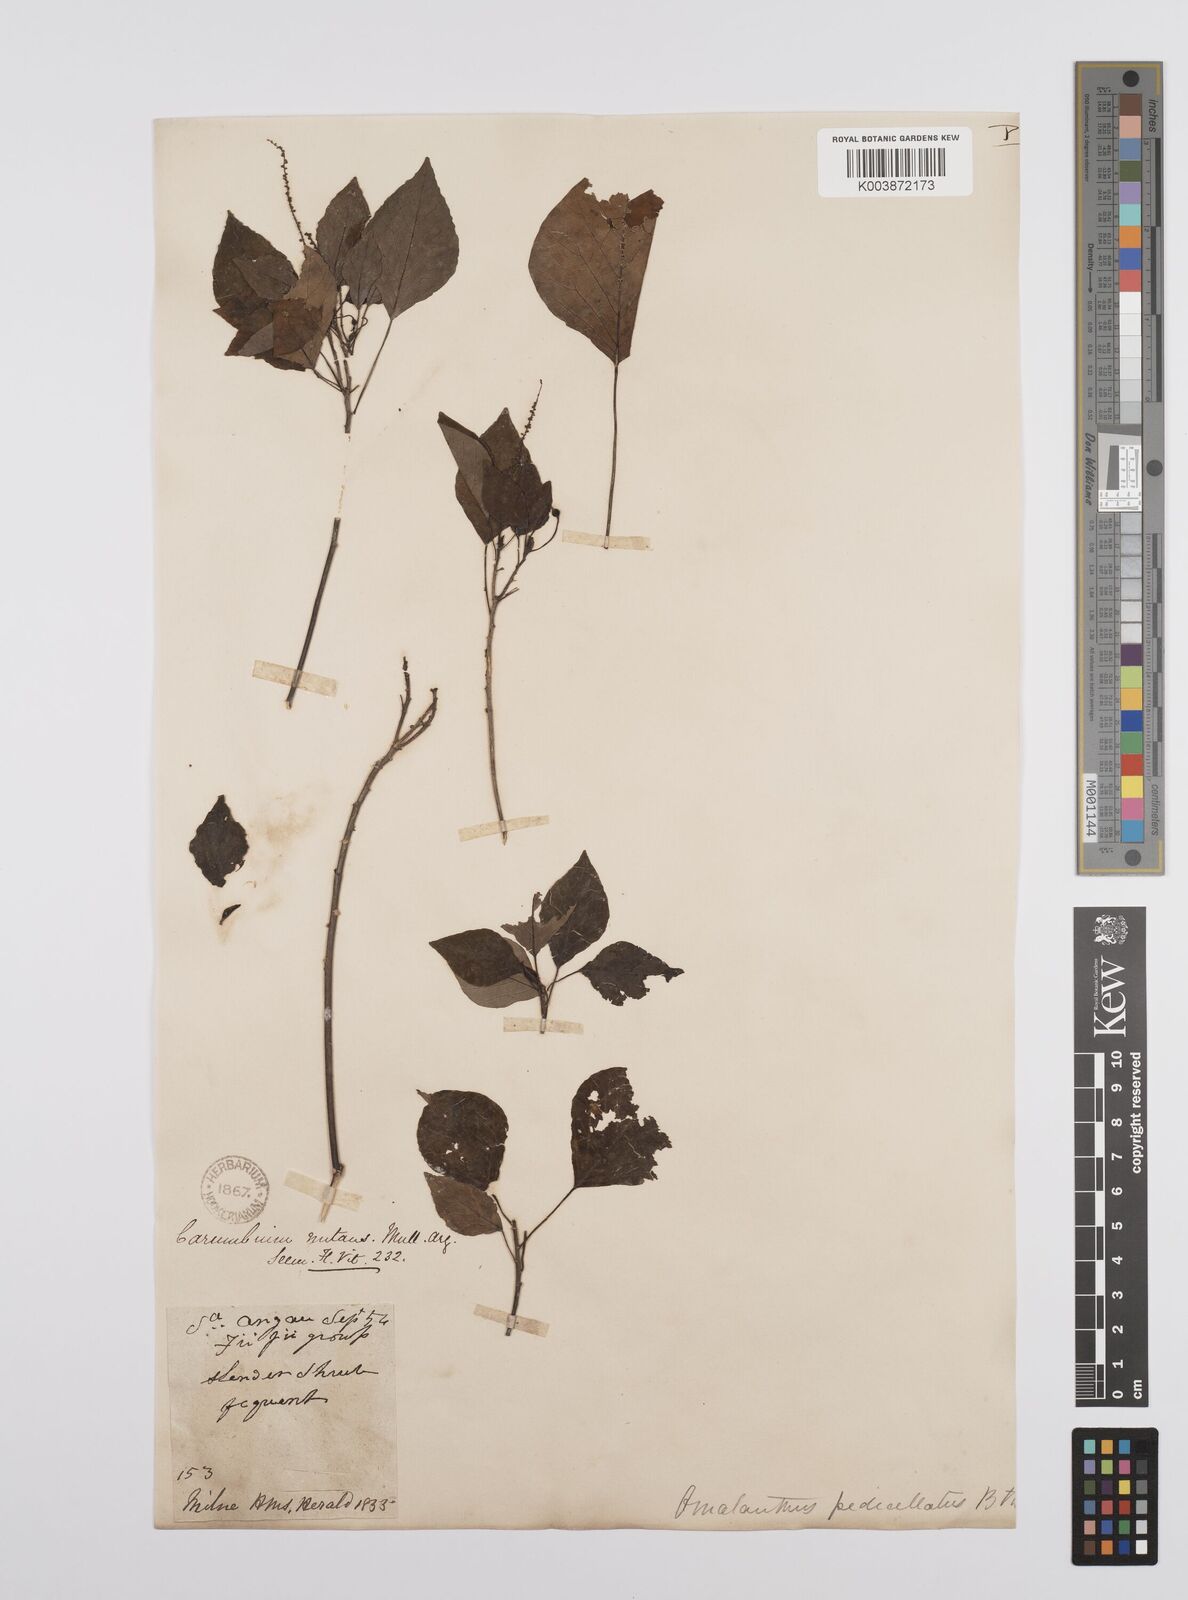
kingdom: Plantae
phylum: Tracheophyta
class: Magnoliopsida
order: Malpighiales
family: Euphorbiaceae
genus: Homalanthus
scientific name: Homalanthus nutans
